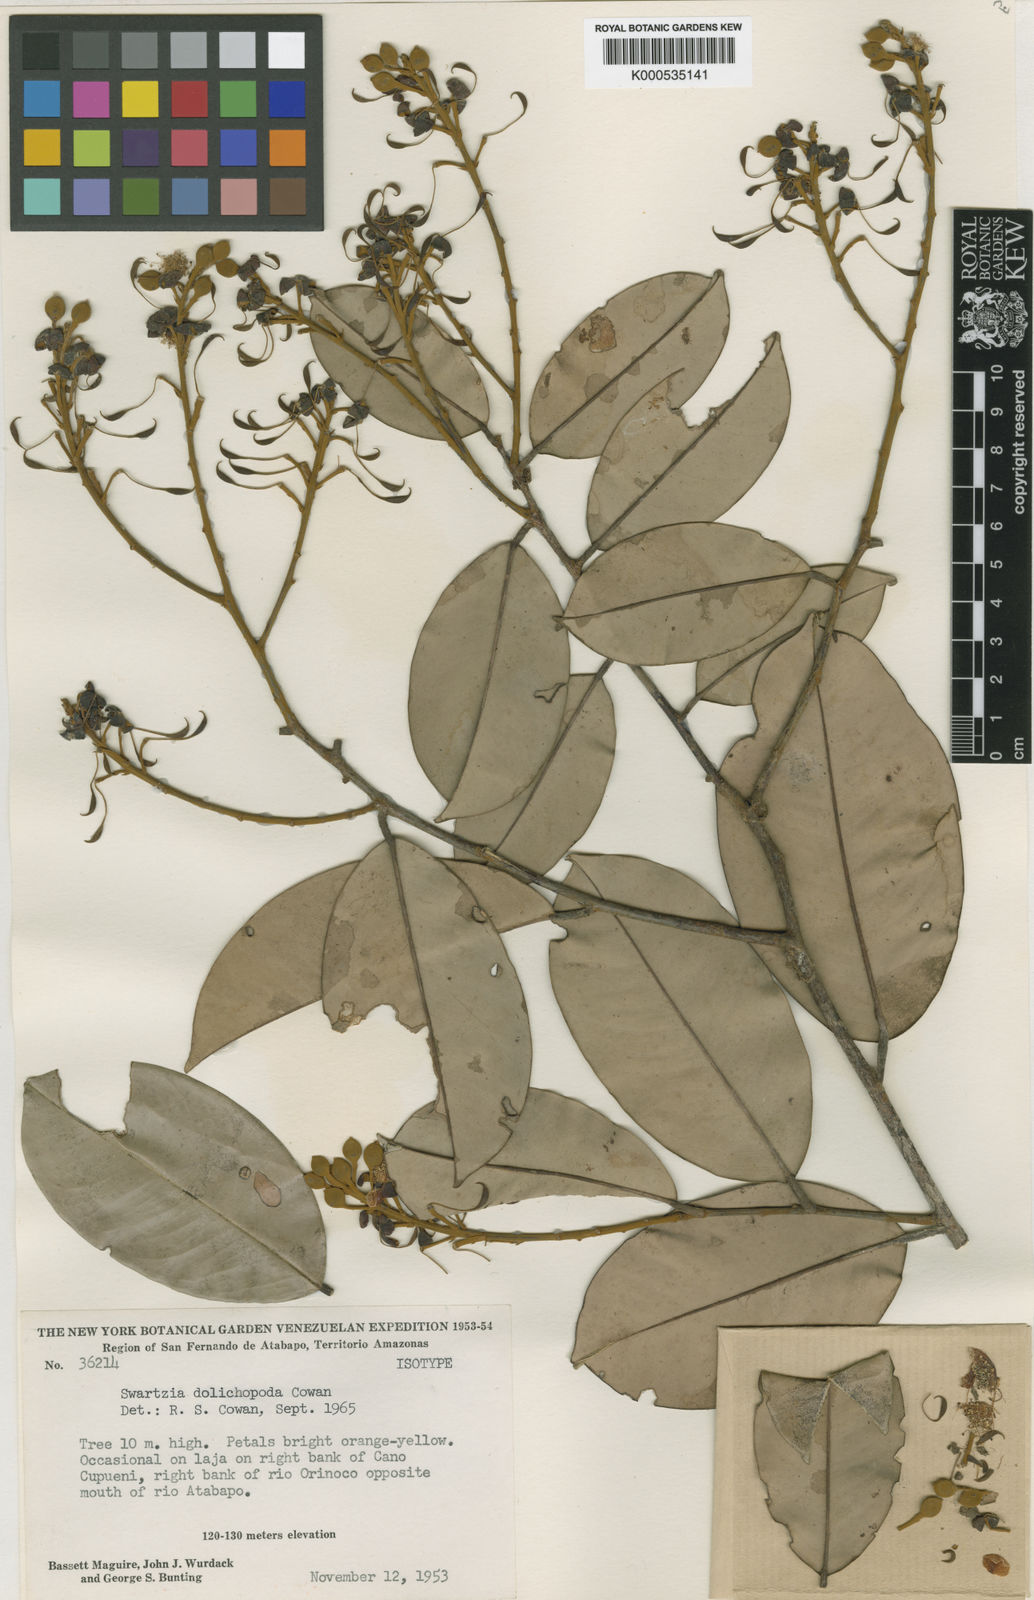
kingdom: Plantae
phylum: Tracheophyta
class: Magnoliopsida
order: Fabales
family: Fabaceae
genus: Swartzia
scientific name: Swartzia vaupesiana
